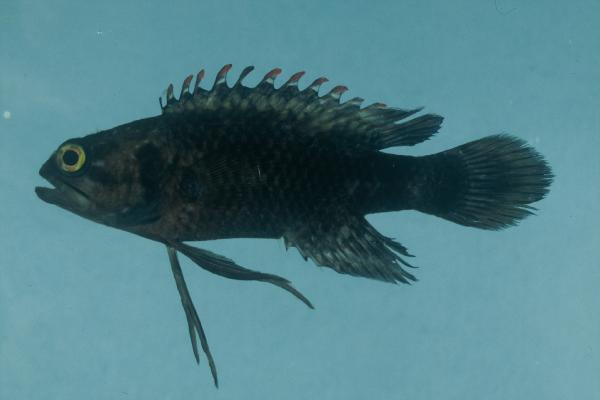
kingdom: Animalia
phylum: Chordata
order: Perciformes
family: Plesiopidae
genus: Plesiops
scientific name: Plesiops coeruleolineatus
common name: Crimsontip longfin
